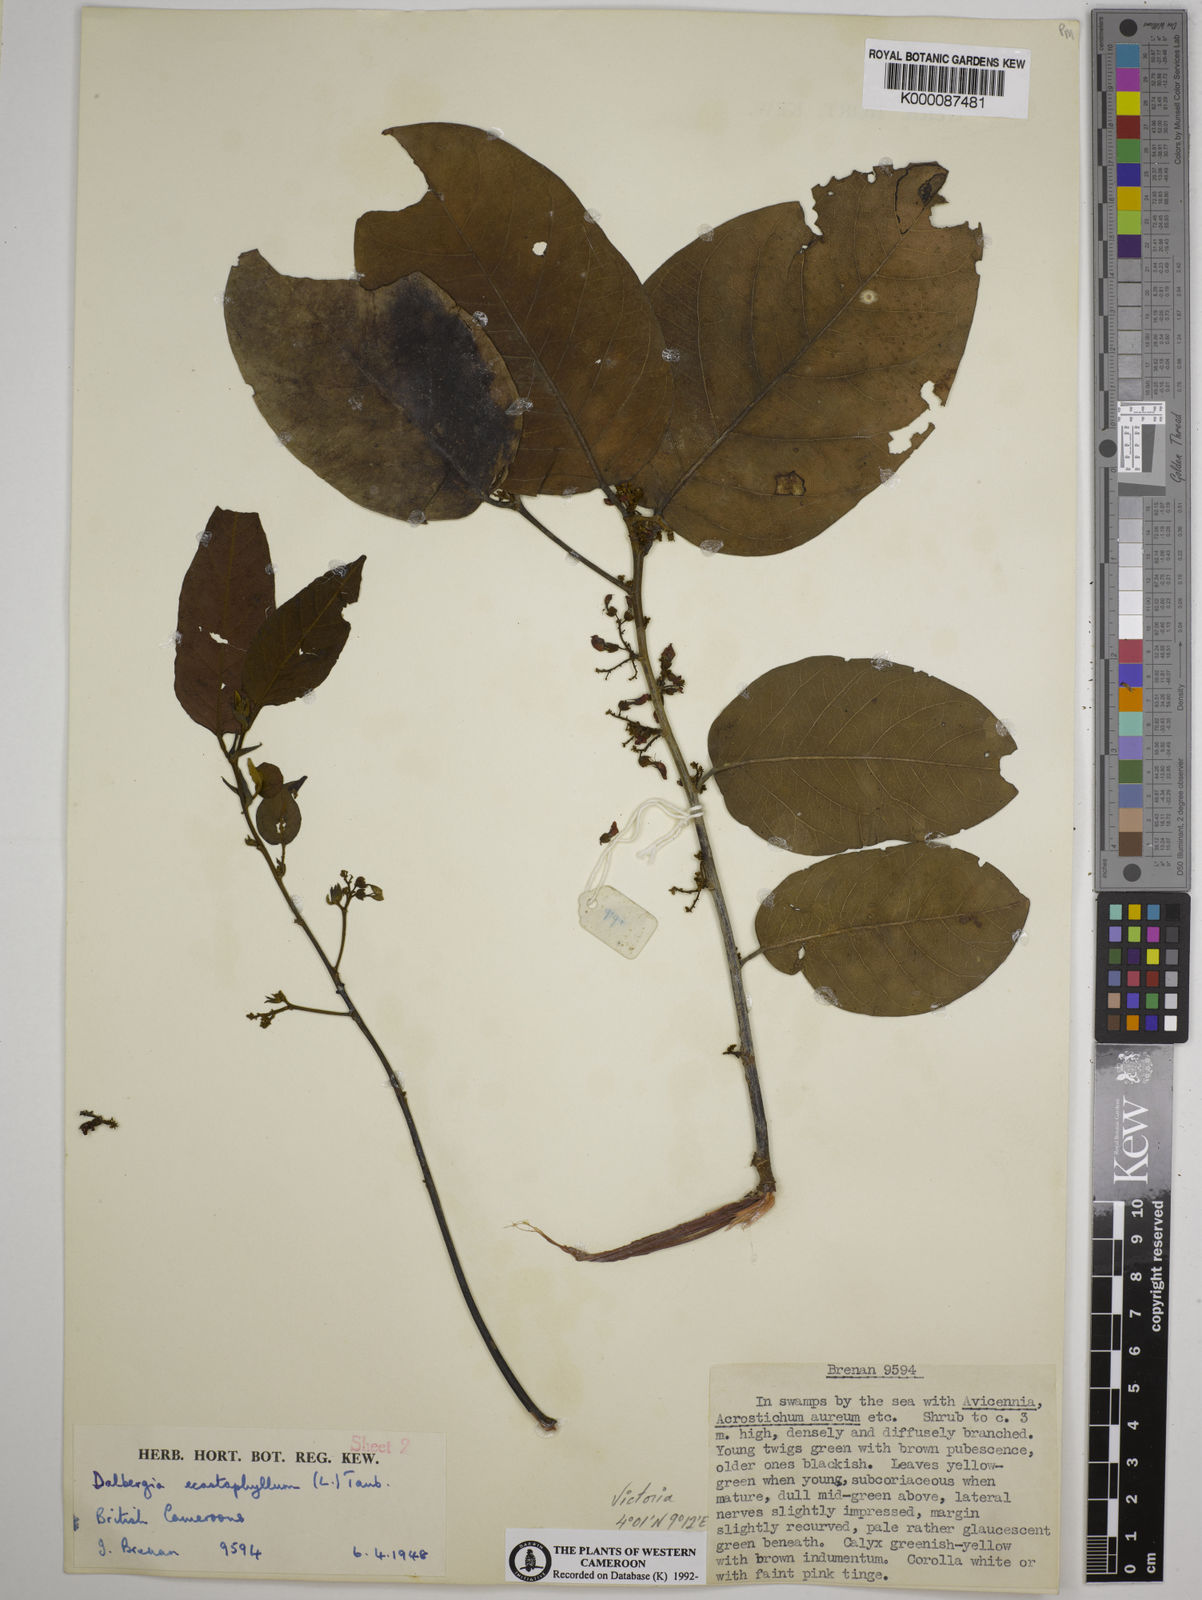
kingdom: Plantae
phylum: Tracheophyta
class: Magnoliopsida
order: Fabales
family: Fabaceae
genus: Dalbergia
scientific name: Dalbergia ecastaphyllum
